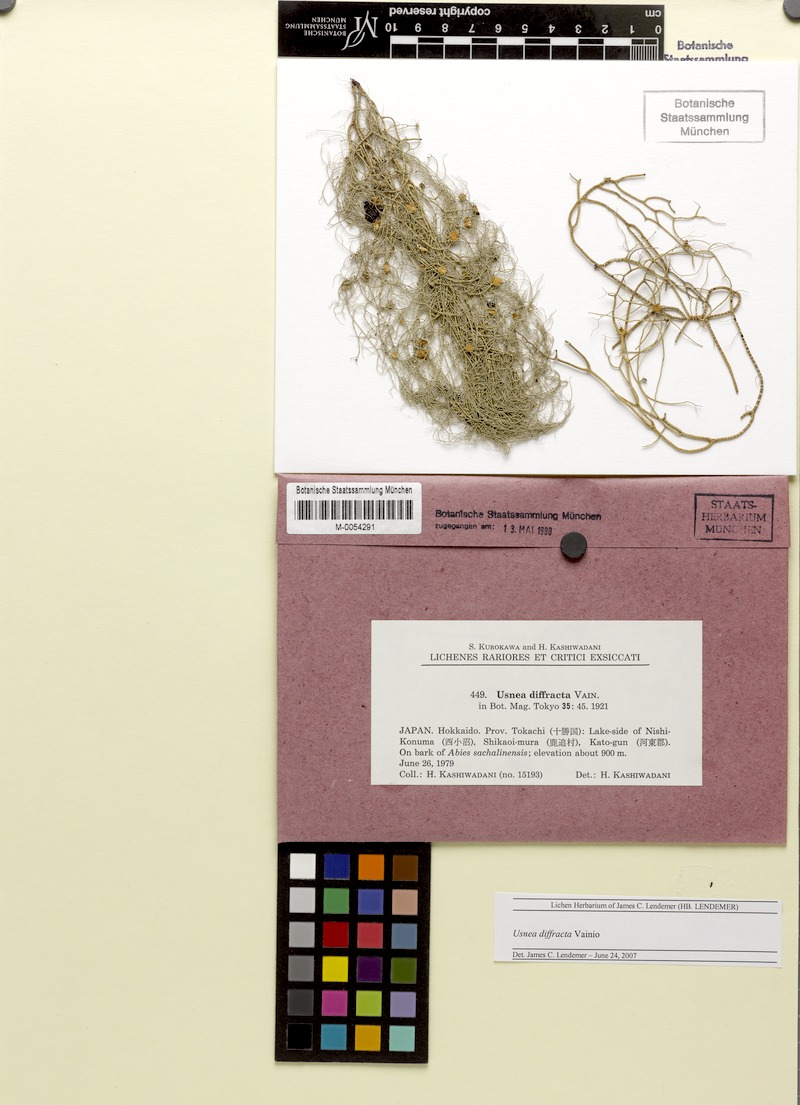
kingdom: Fungi
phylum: Ascomycota
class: Lecanoromycetes
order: Lecanorales
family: Parmeliaceae
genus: Dolichousnea
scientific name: Dolichousnea diffracta
